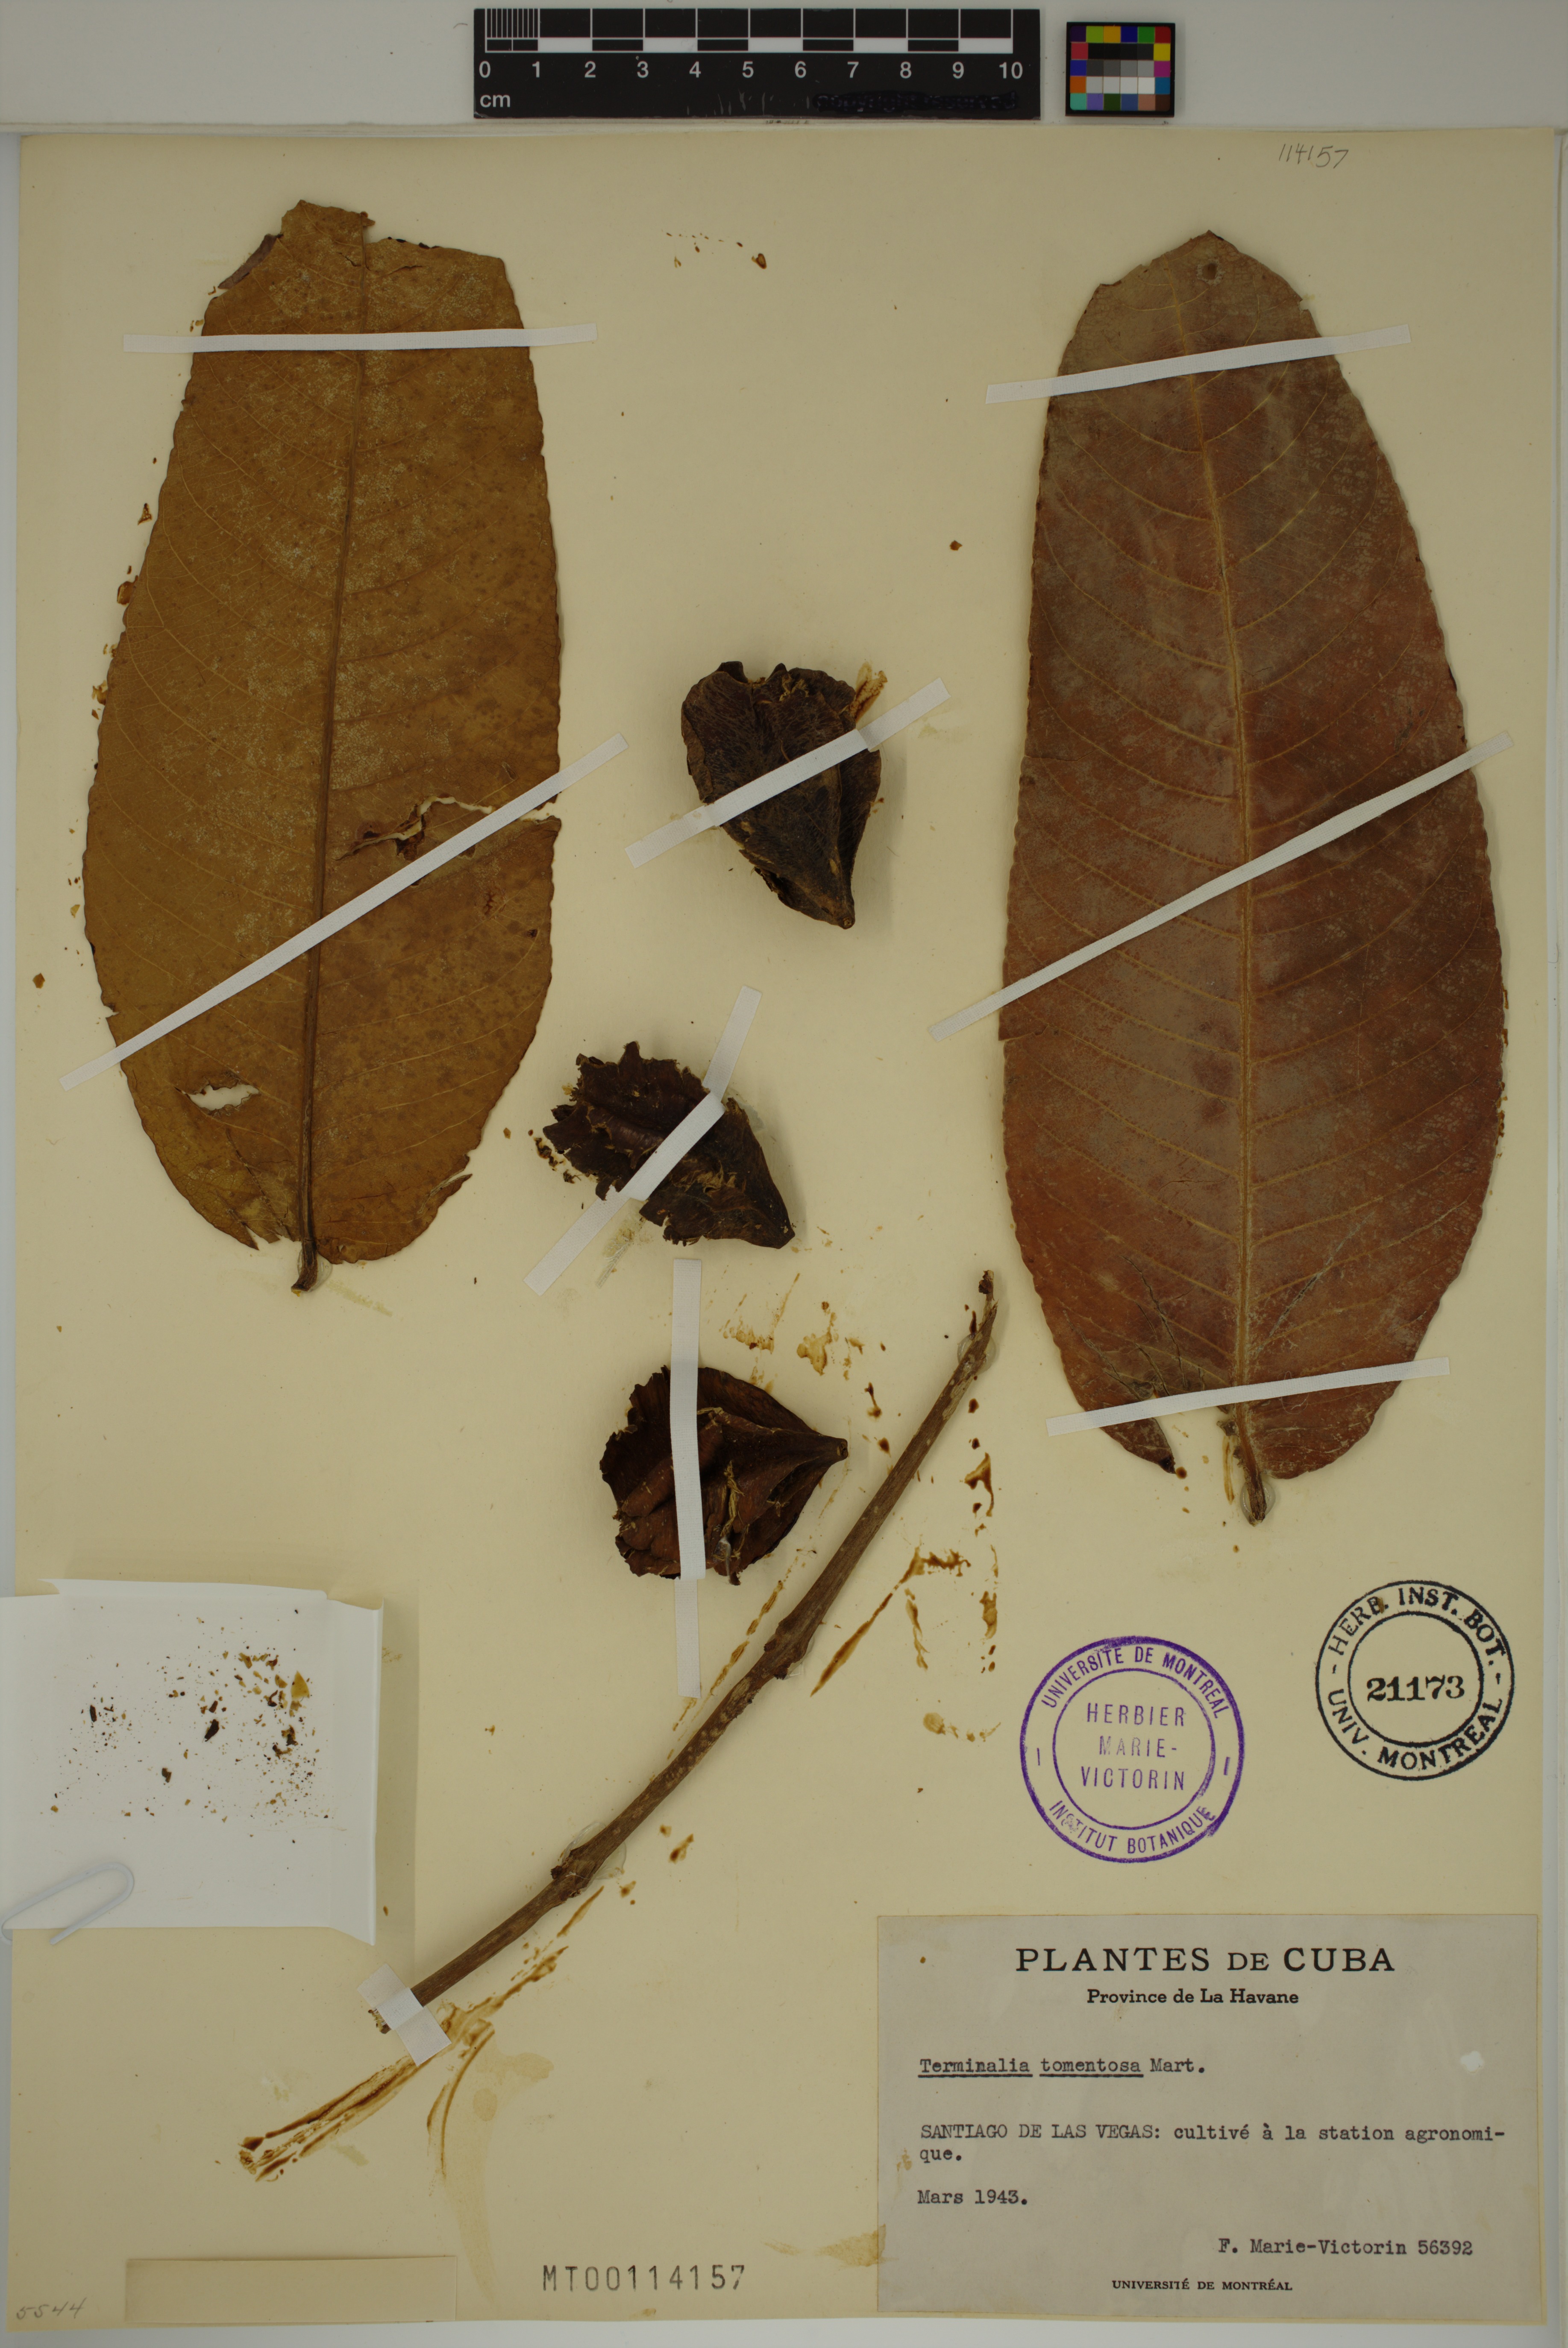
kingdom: Plantae
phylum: Tracheophyta
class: Magnoliopsida
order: Myrtales
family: Combretaceae
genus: Terminalia
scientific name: Terminalia arjuna
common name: Arjun
